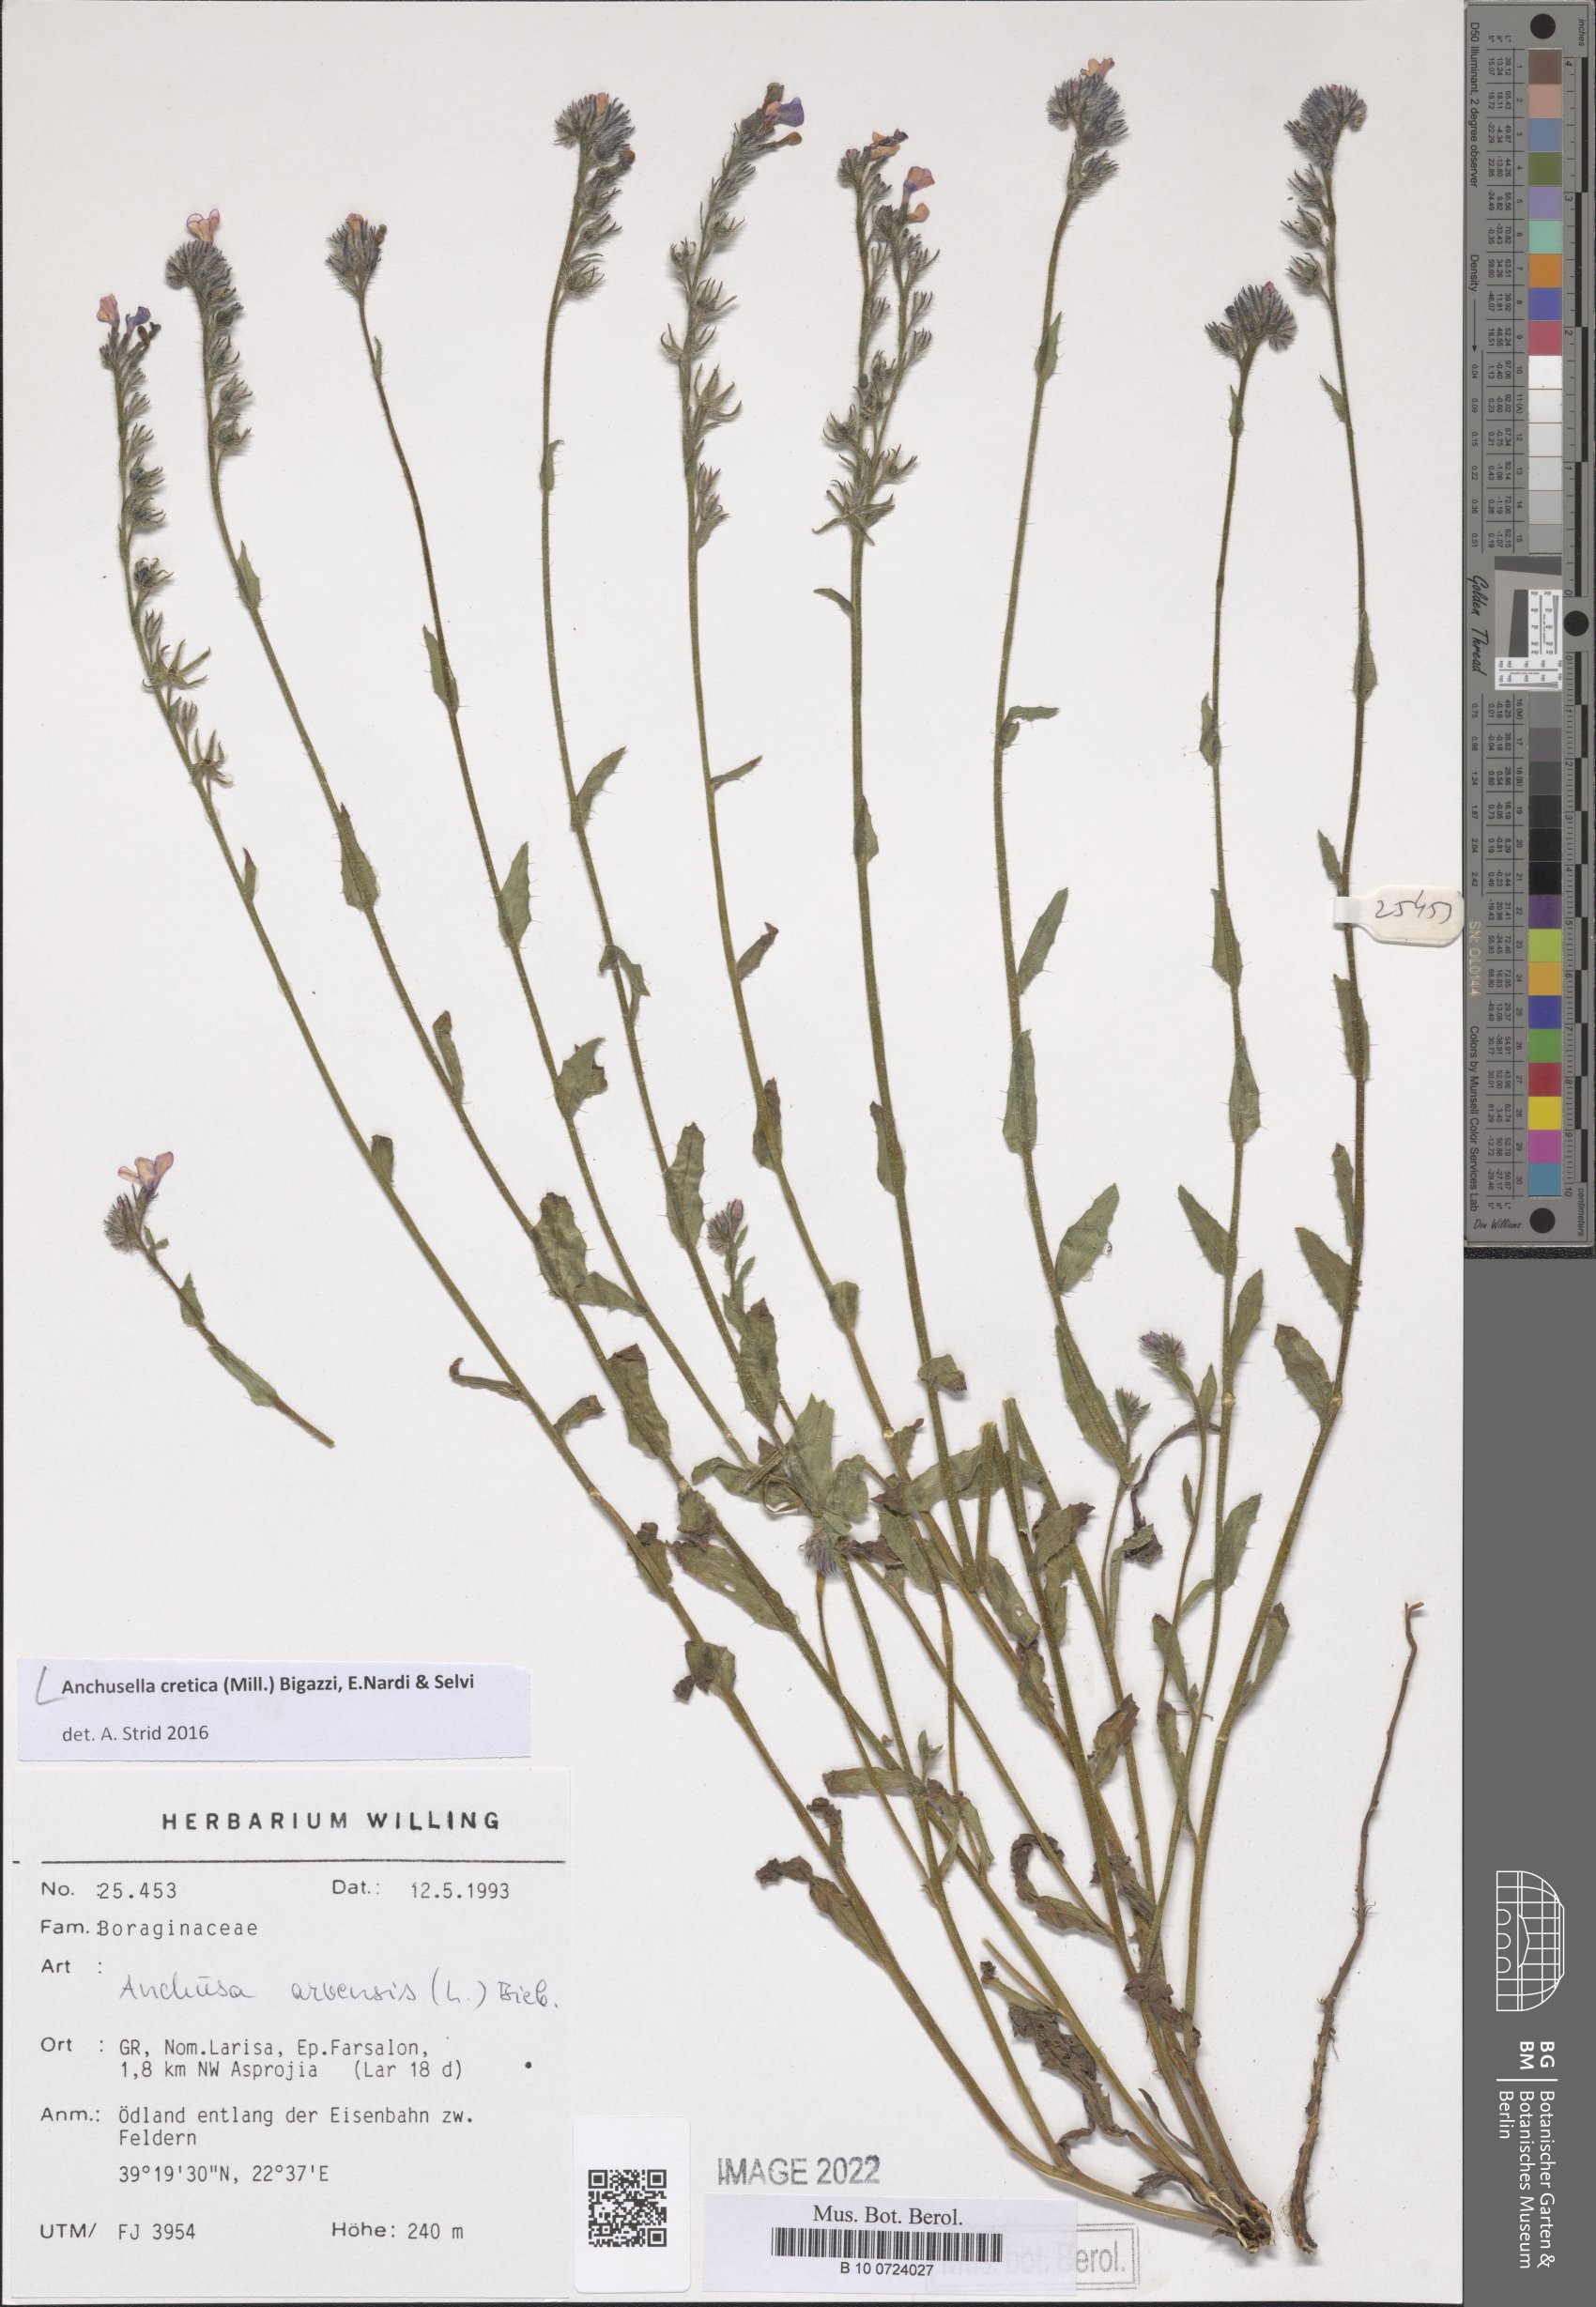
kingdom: Plantae
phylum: Tracheophyta
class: Magnoliopsida
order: Boraginales
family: Boraginaceae
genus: Anchusella
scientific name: Anchusella cretica
